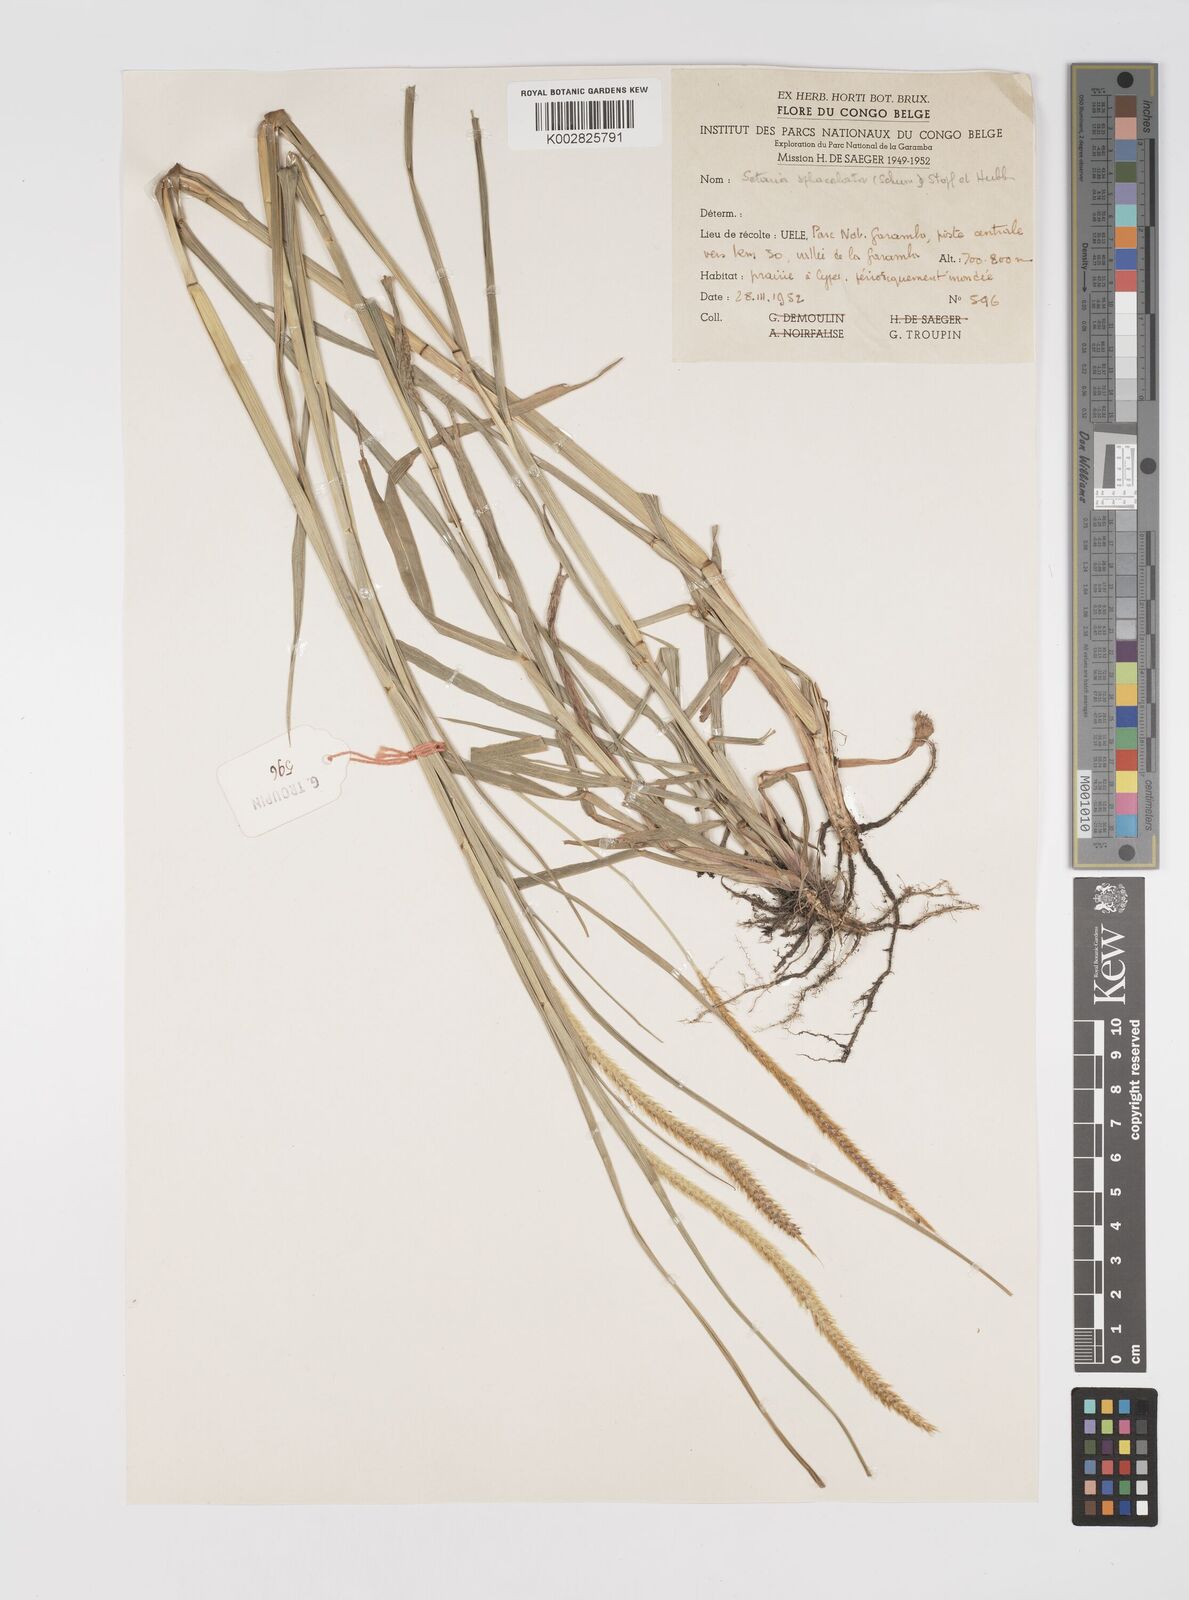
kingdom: Plantae
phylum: Tracheophyta
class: Liliopsida
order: Poales
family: Poaceae
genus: Setaria
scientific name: Setaria sphacelata
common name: African bristlegrass
